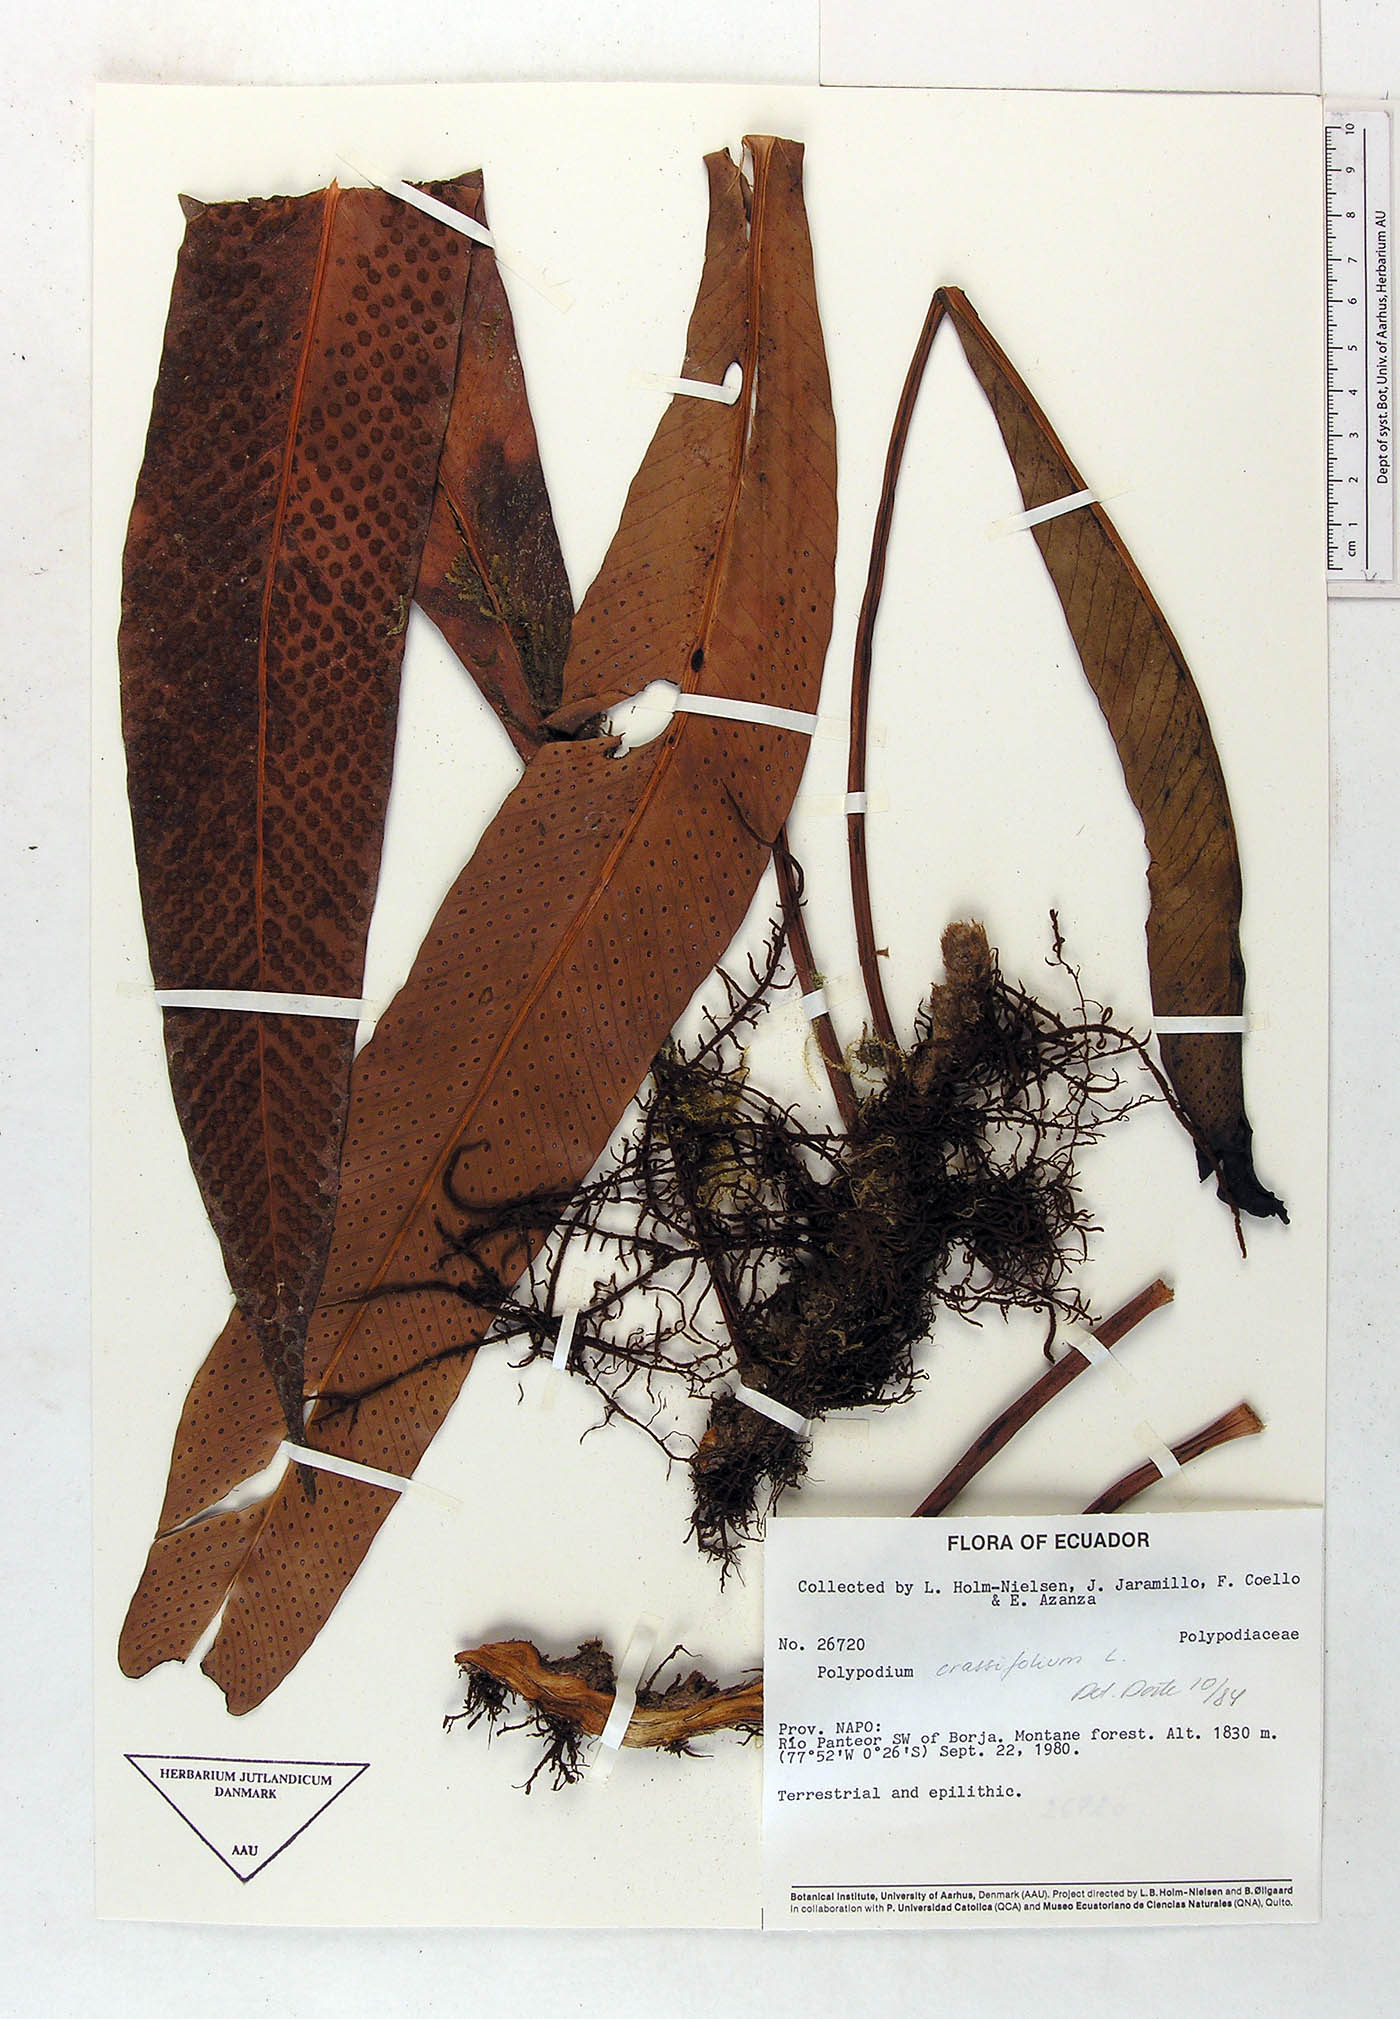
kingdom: Plantae
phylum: Tracheophyta
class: Polypodiopsida
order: Polypodiales
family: Polypodiaceae
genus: Niphidium
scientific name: Niphidium crassifolium
